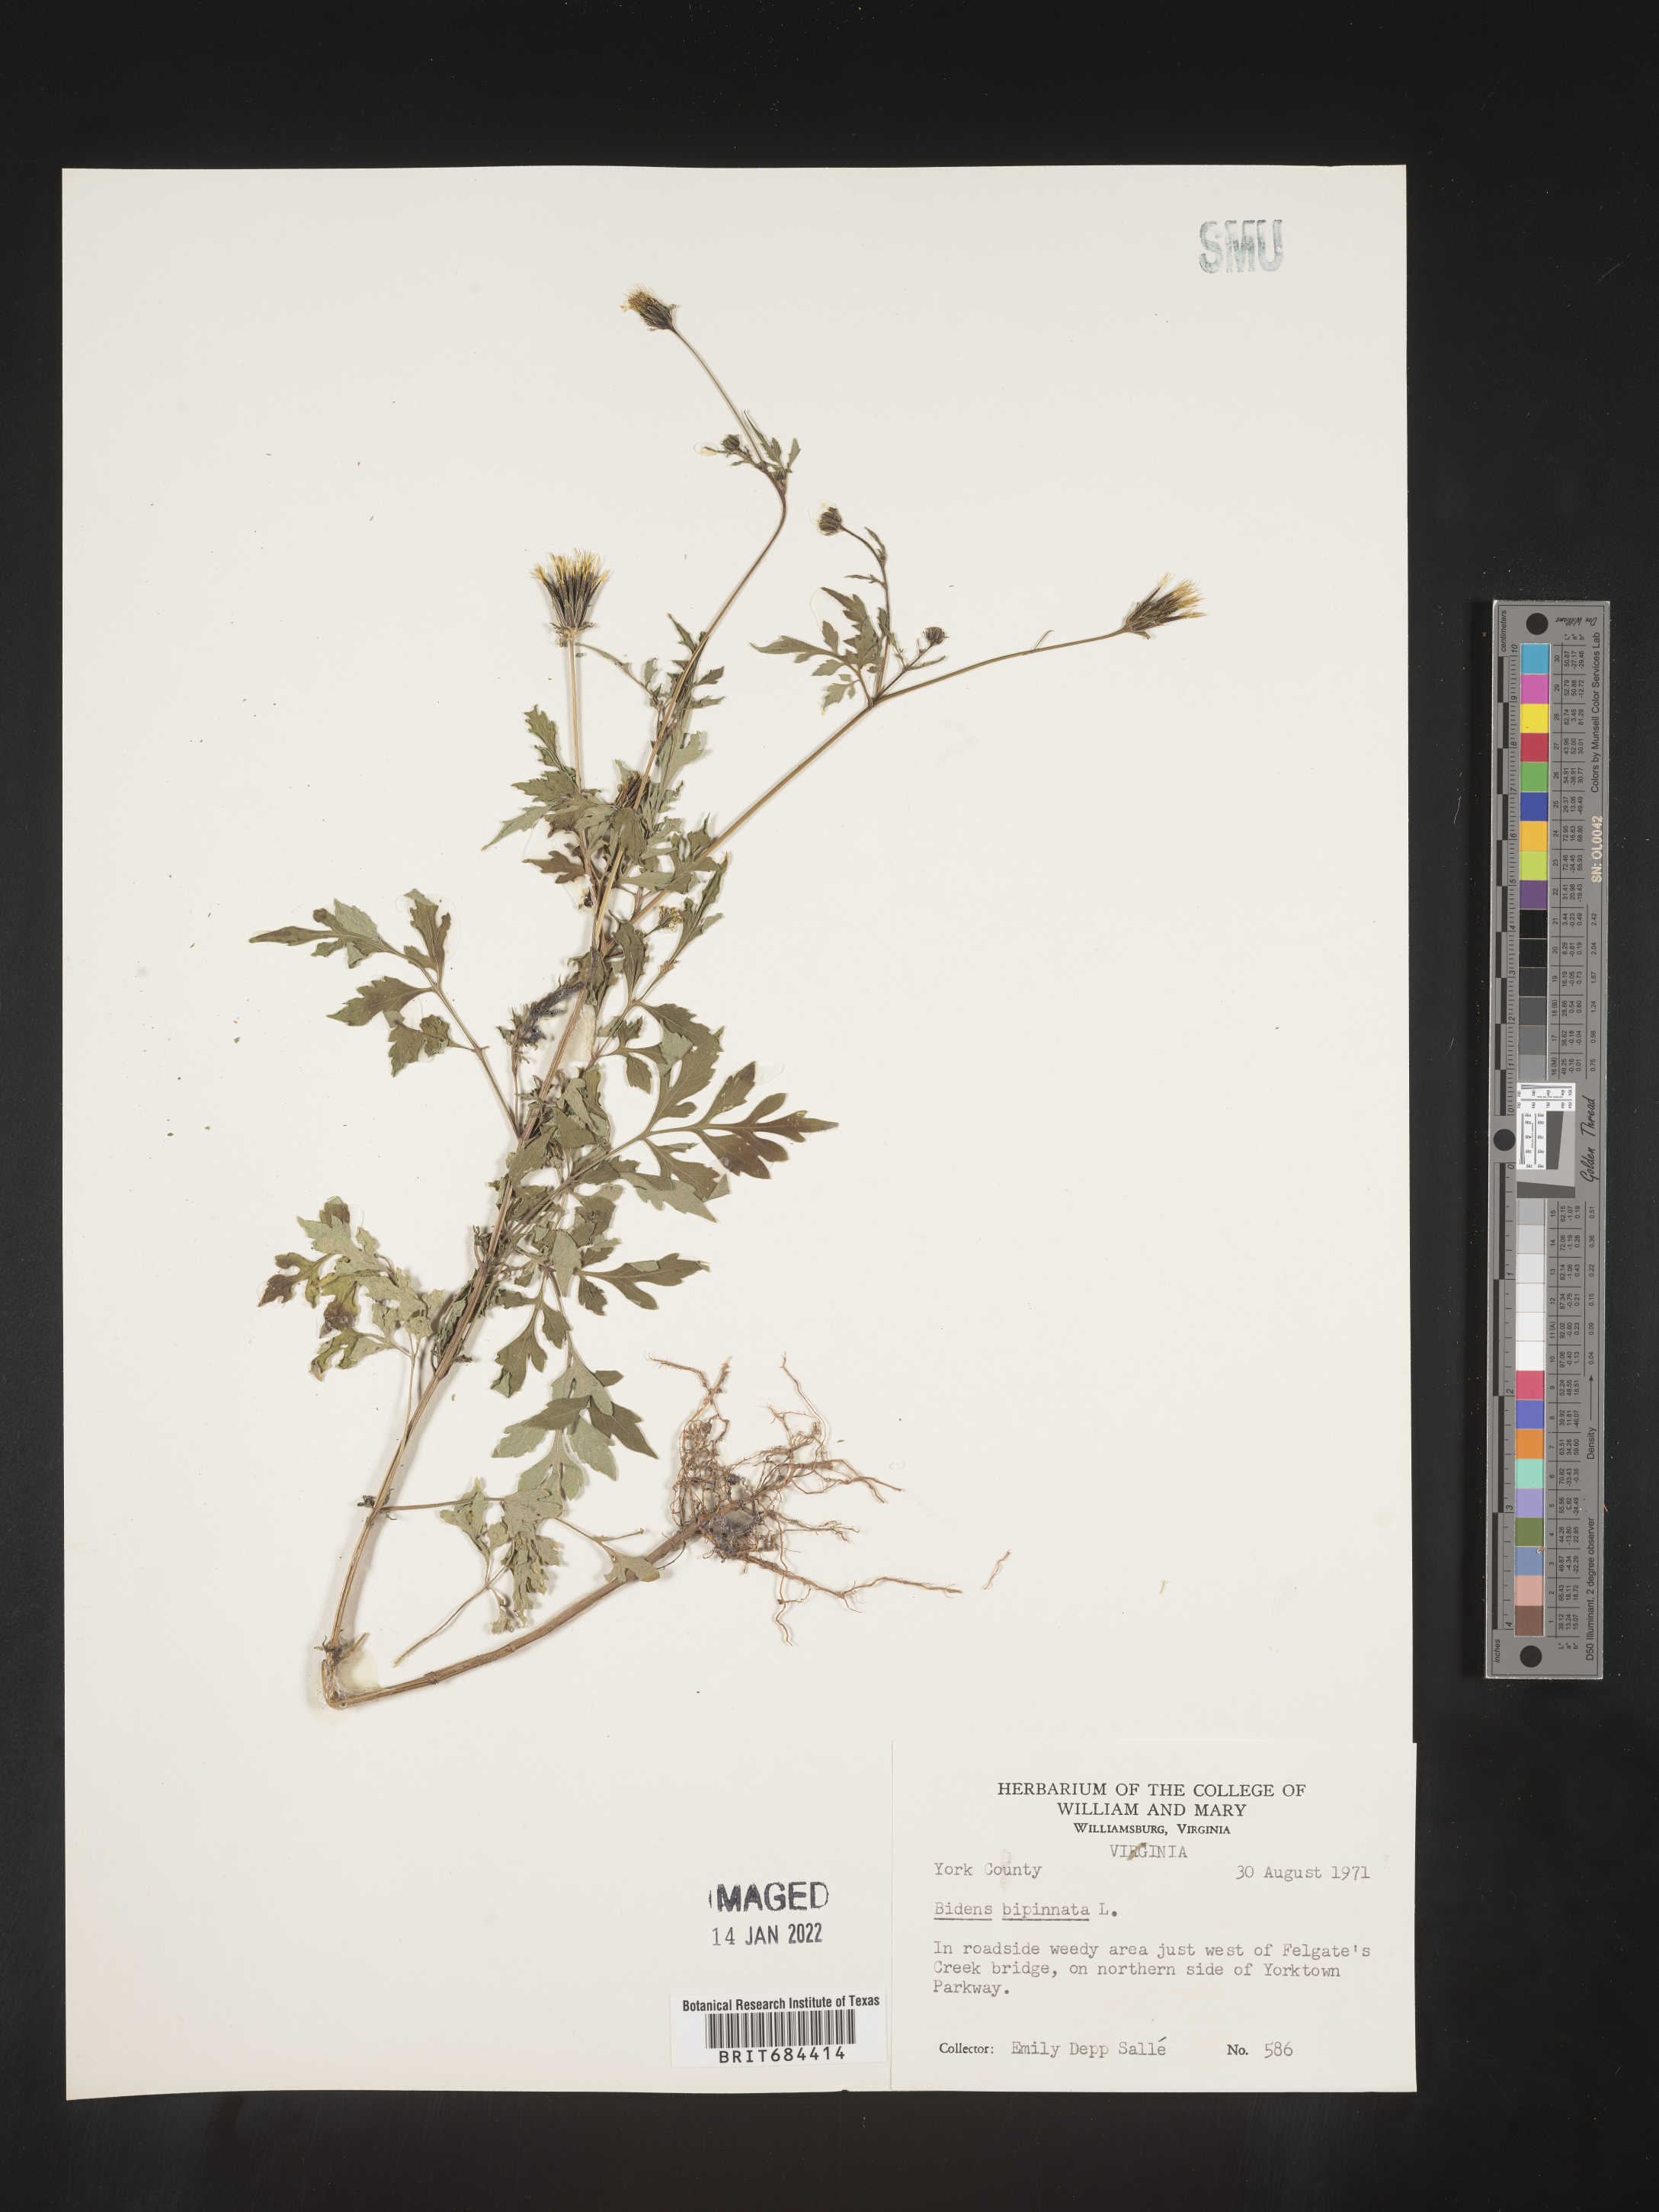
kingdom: Plantae
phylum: Tracheophyta
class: Magnoliopsida
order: Asterales
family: Asteraceae
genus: Bidens
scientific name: Bidens bipinnata
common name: Spanish-needles
